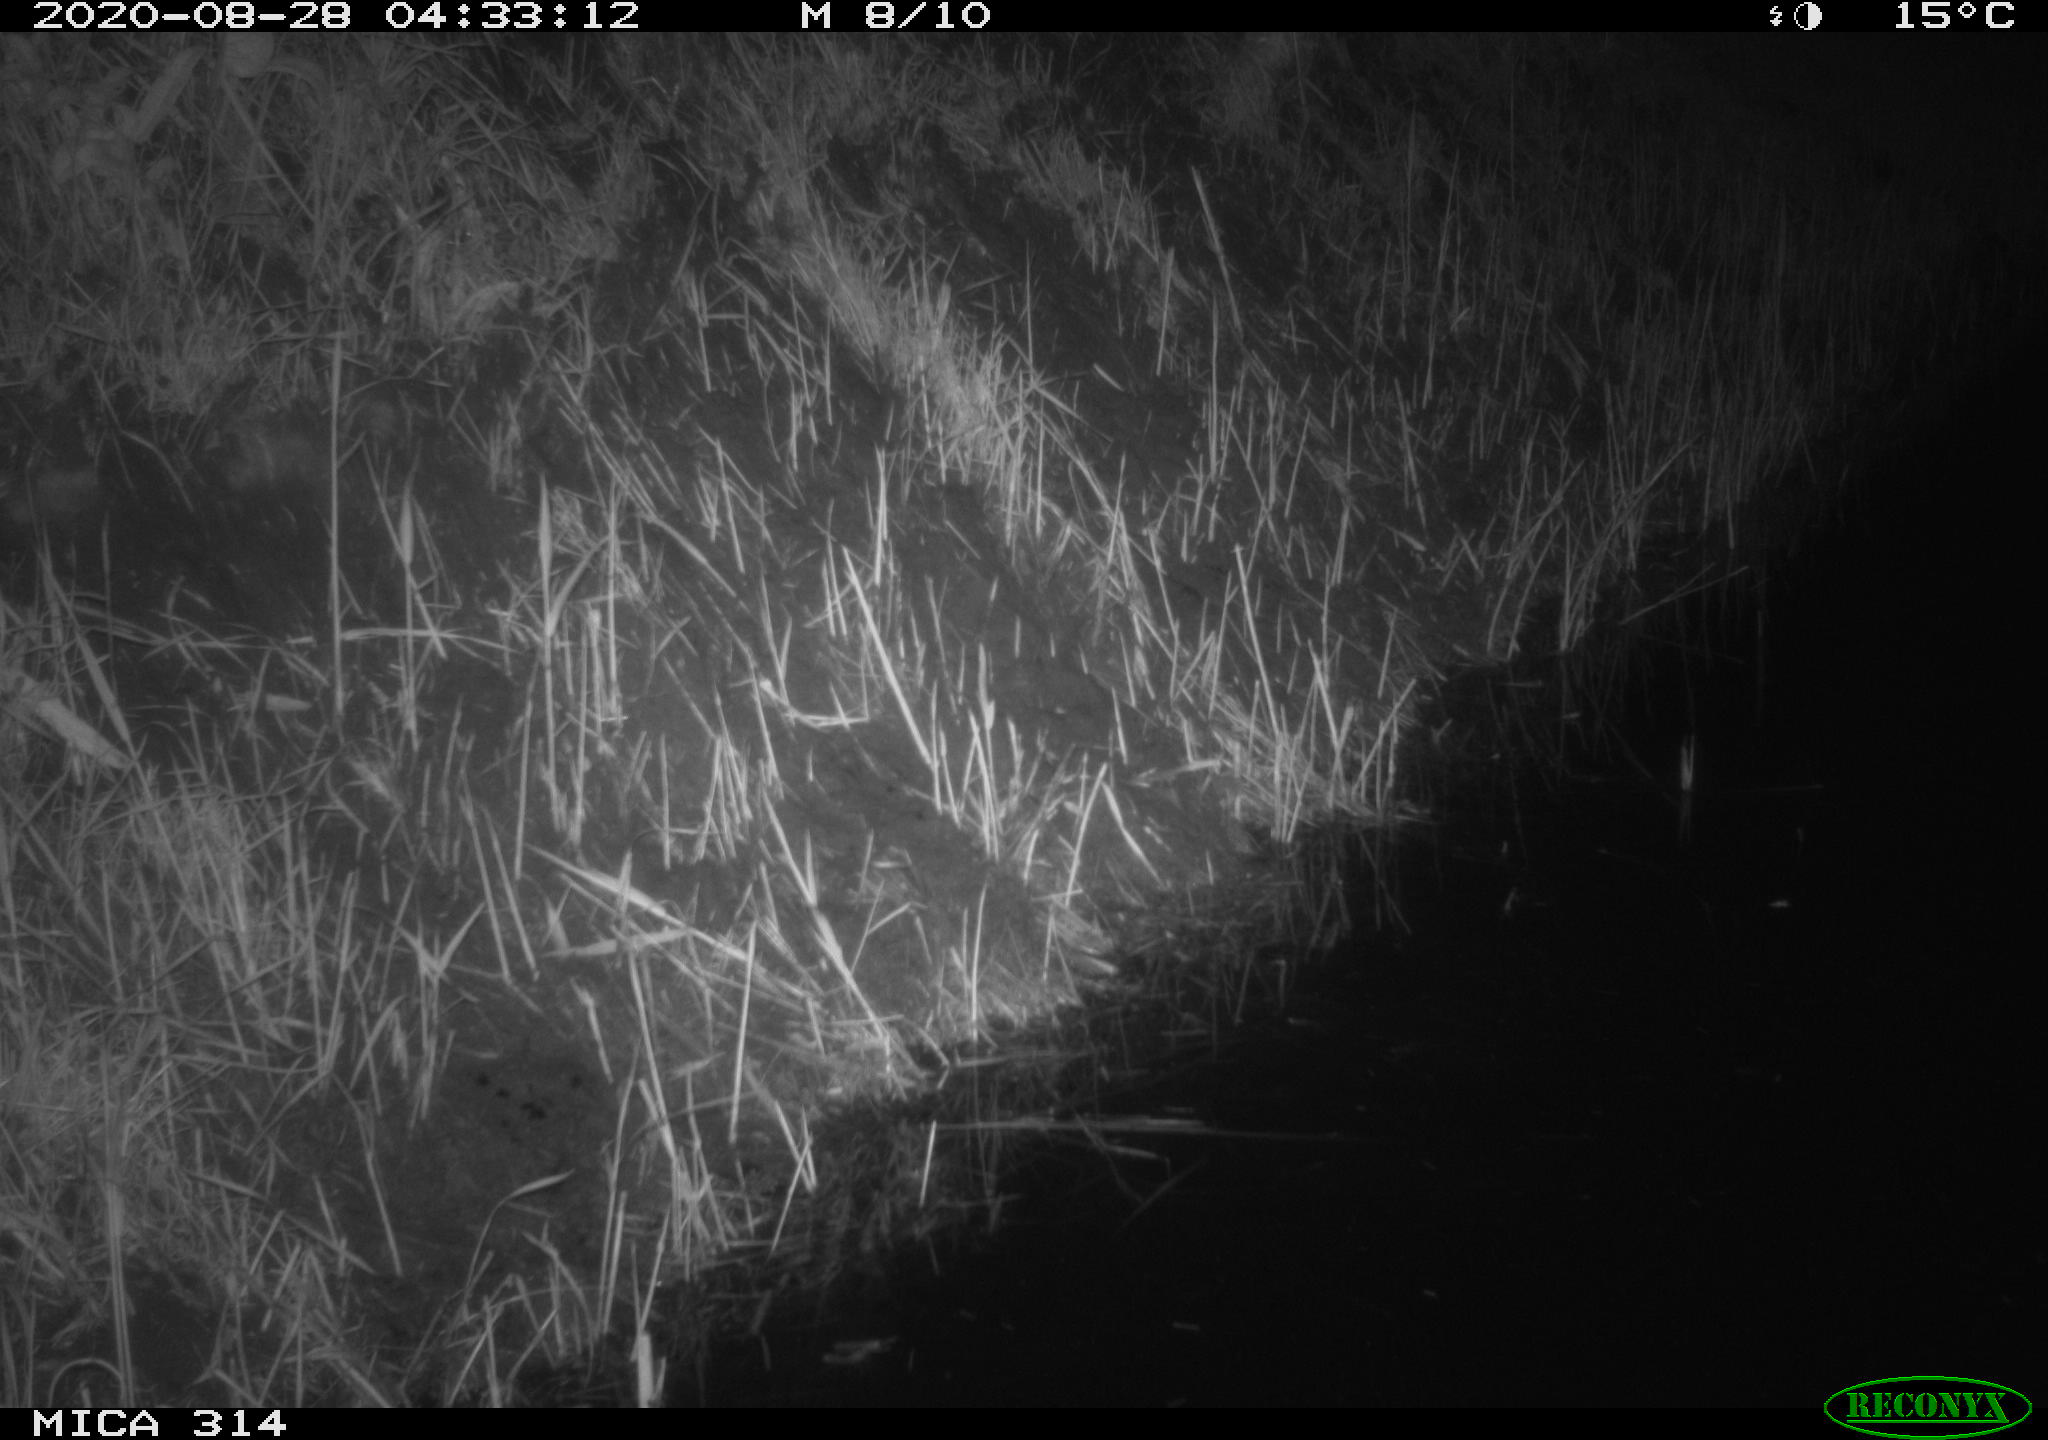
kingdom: Animalia
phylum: Chordata
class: Mammalia
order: Rodentia
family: Muridae
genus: Rattus
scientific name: Rattus norvegicus
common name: Brown rat
